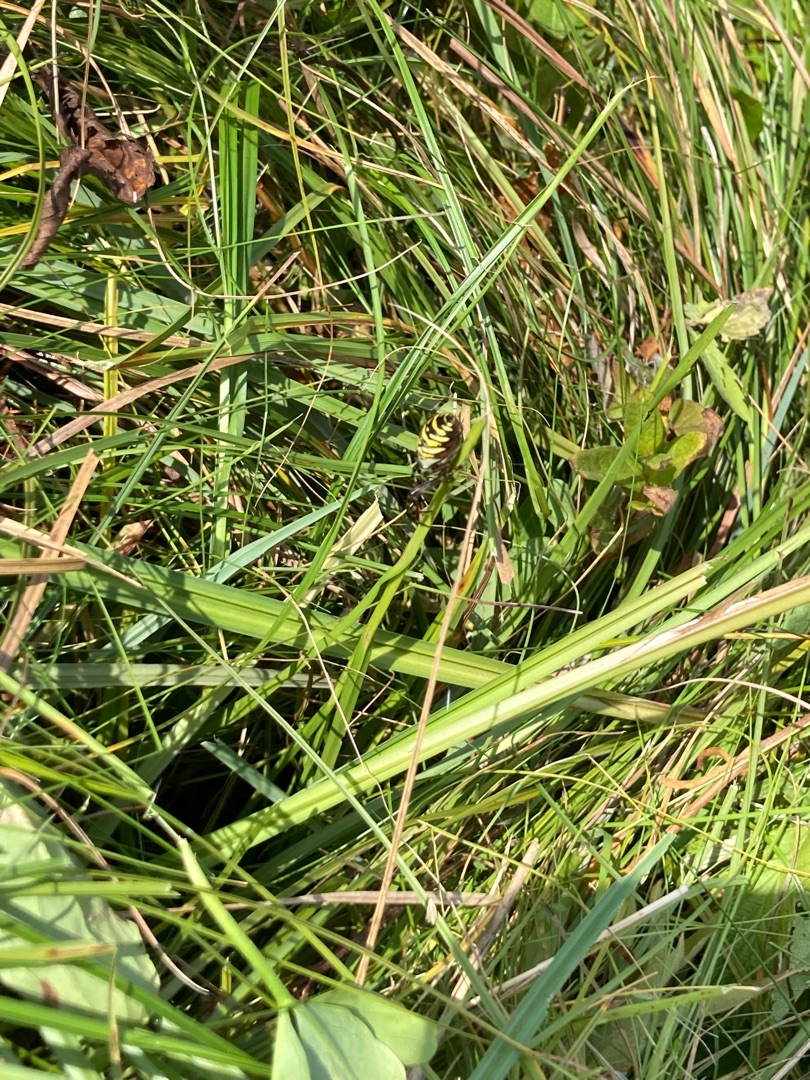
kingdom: Animalia
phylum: Arthropoda
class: Arachnida
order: Araneae
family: Araneidae
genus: Argiope
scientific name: Argiope bruennichi
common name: Hvepseedderkop
